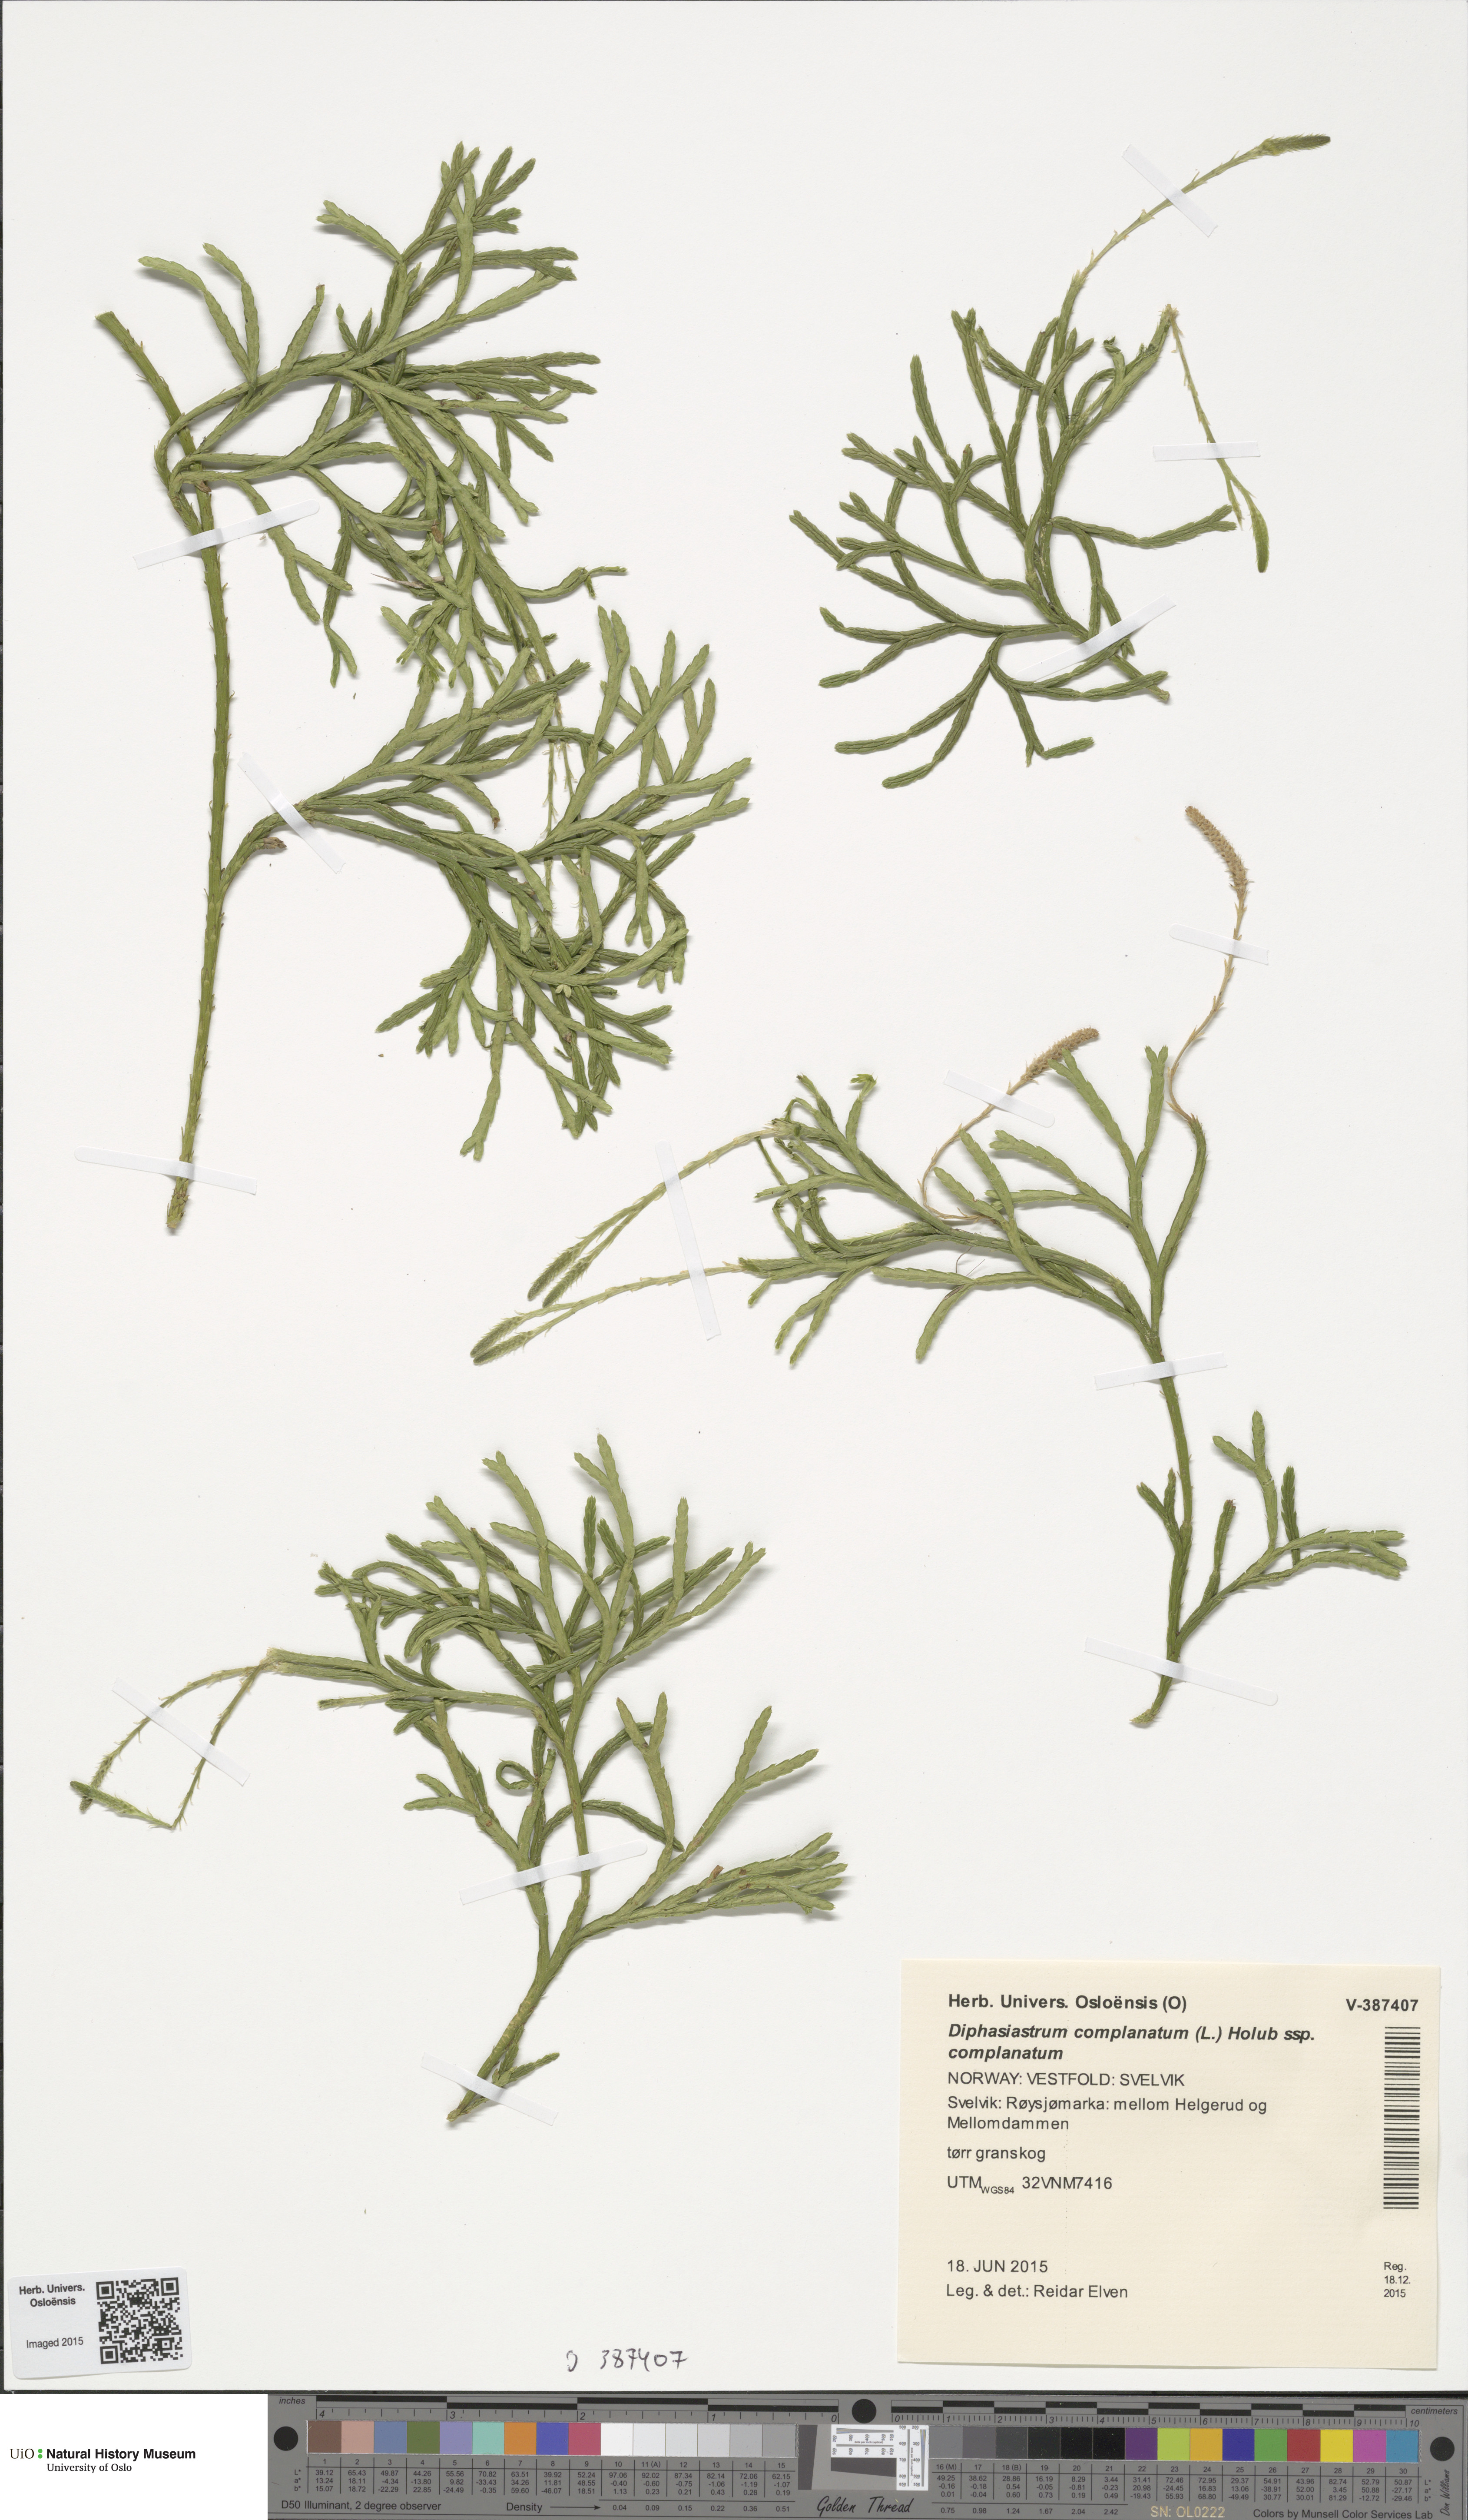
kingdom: Plantae
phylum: Tracheophyta
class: Lycopodiopsida
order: Lycopodiales
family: Lycopodiaceae
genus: Diphasiastrum
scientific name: Diphasiastrum complanatum
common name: Northern running-pine
